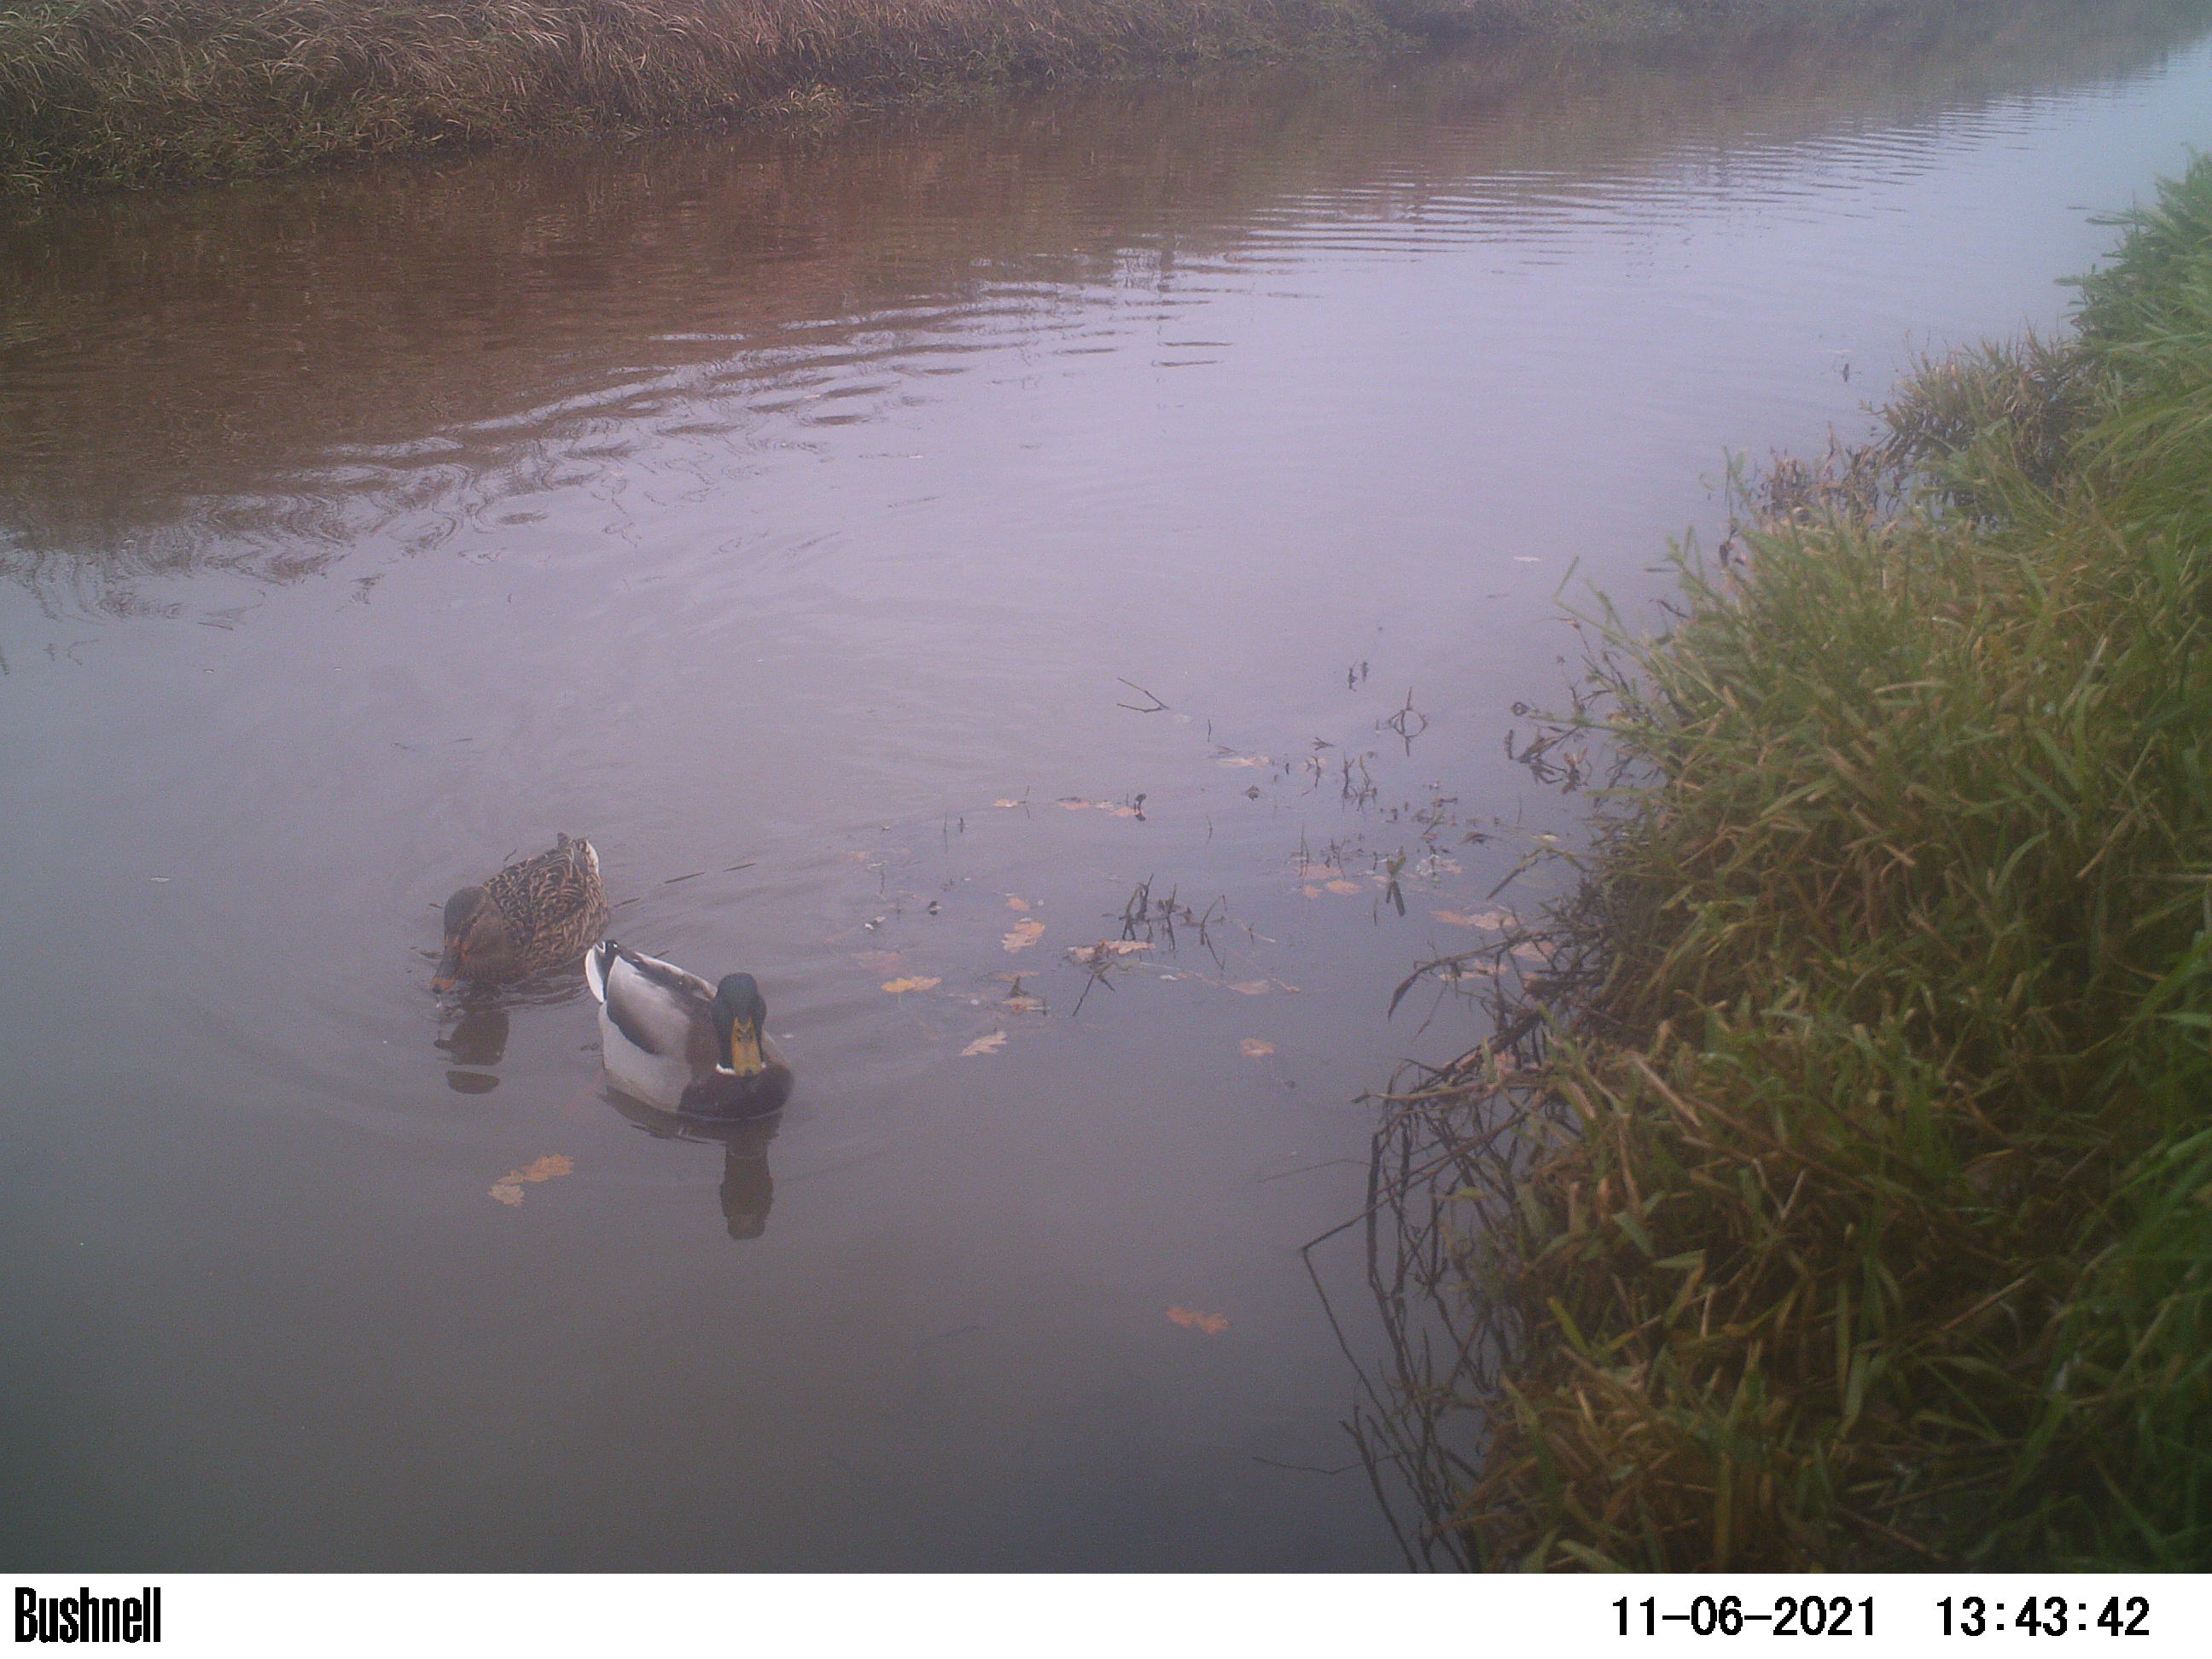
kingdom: Animalia
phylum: Chordata
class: Aves
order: Anseriformes
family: Anatidae
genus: Anas
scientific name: Anas
